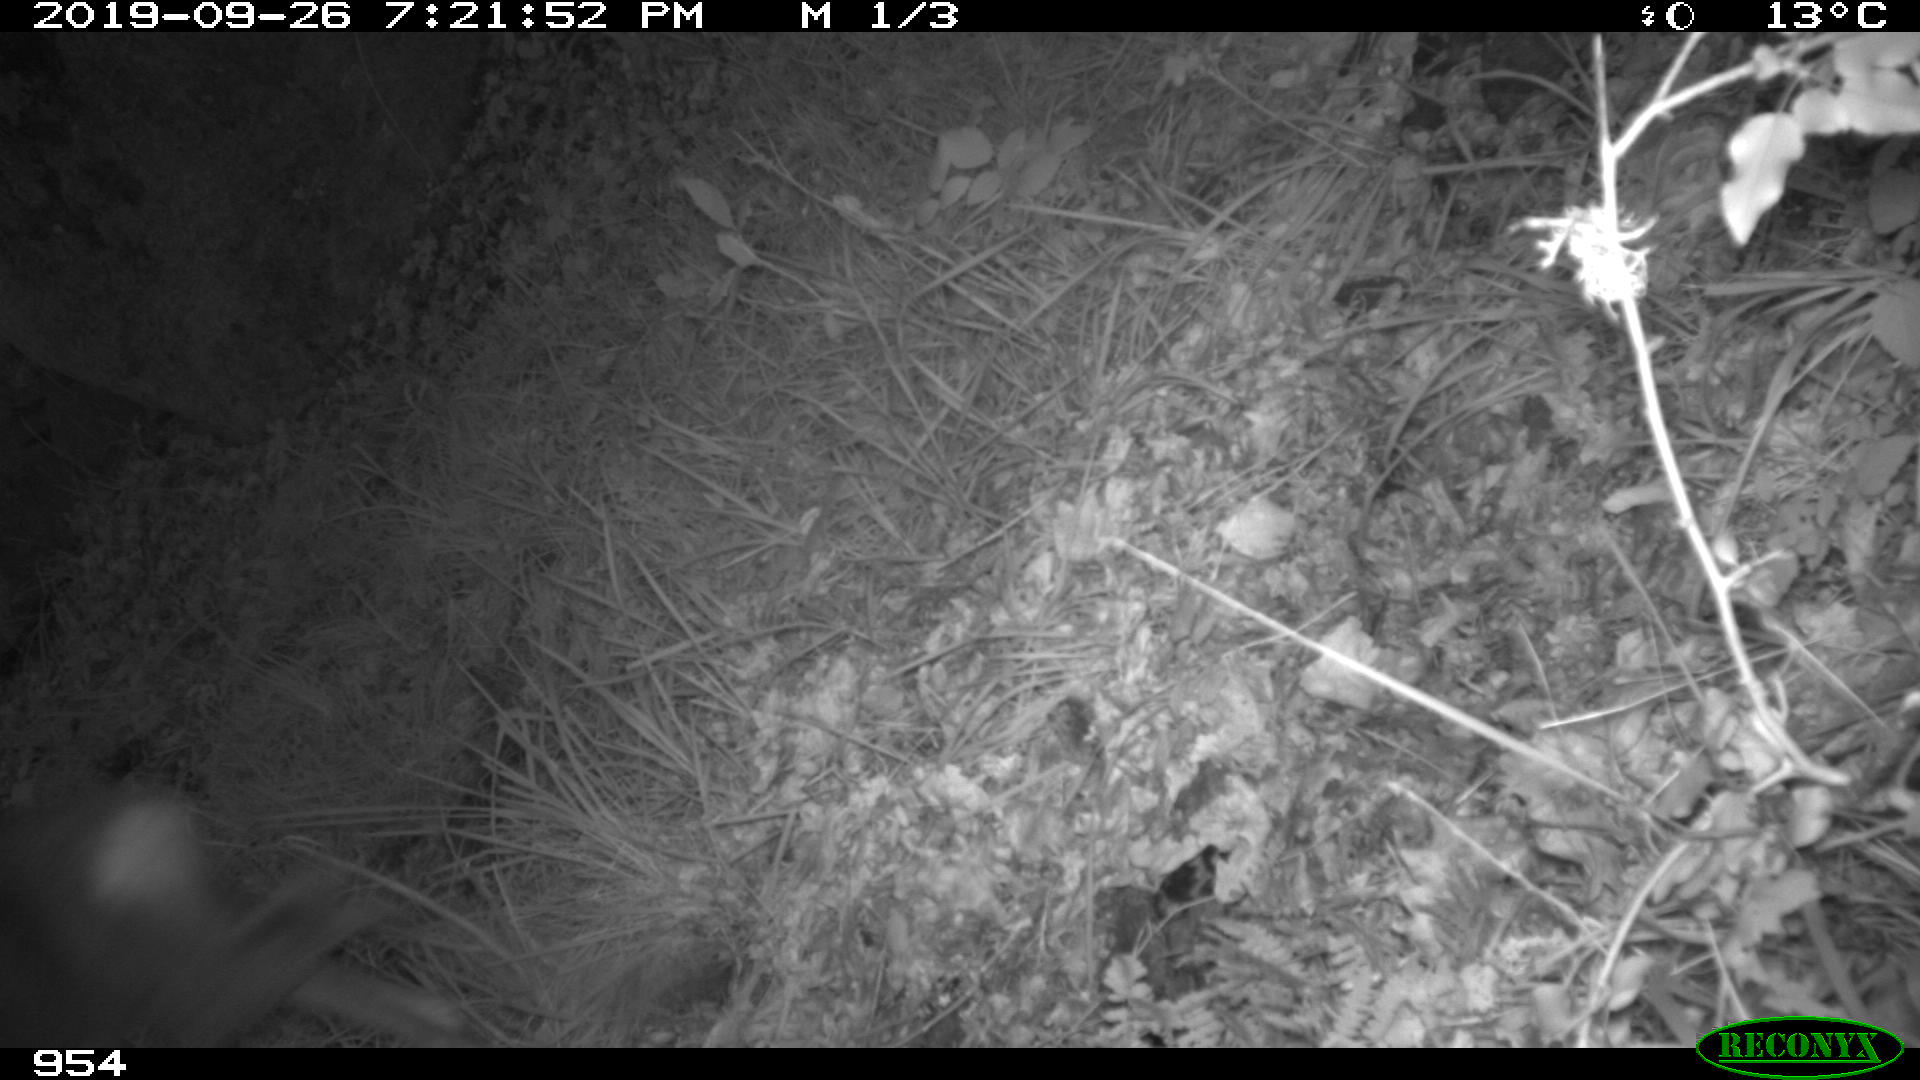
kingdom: Animalia
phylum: Chordata
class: Mammalia
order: Artiodactyla
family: Cervidae
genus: Capreolus
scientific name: Capreolus capreolus
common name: Western roe deer
